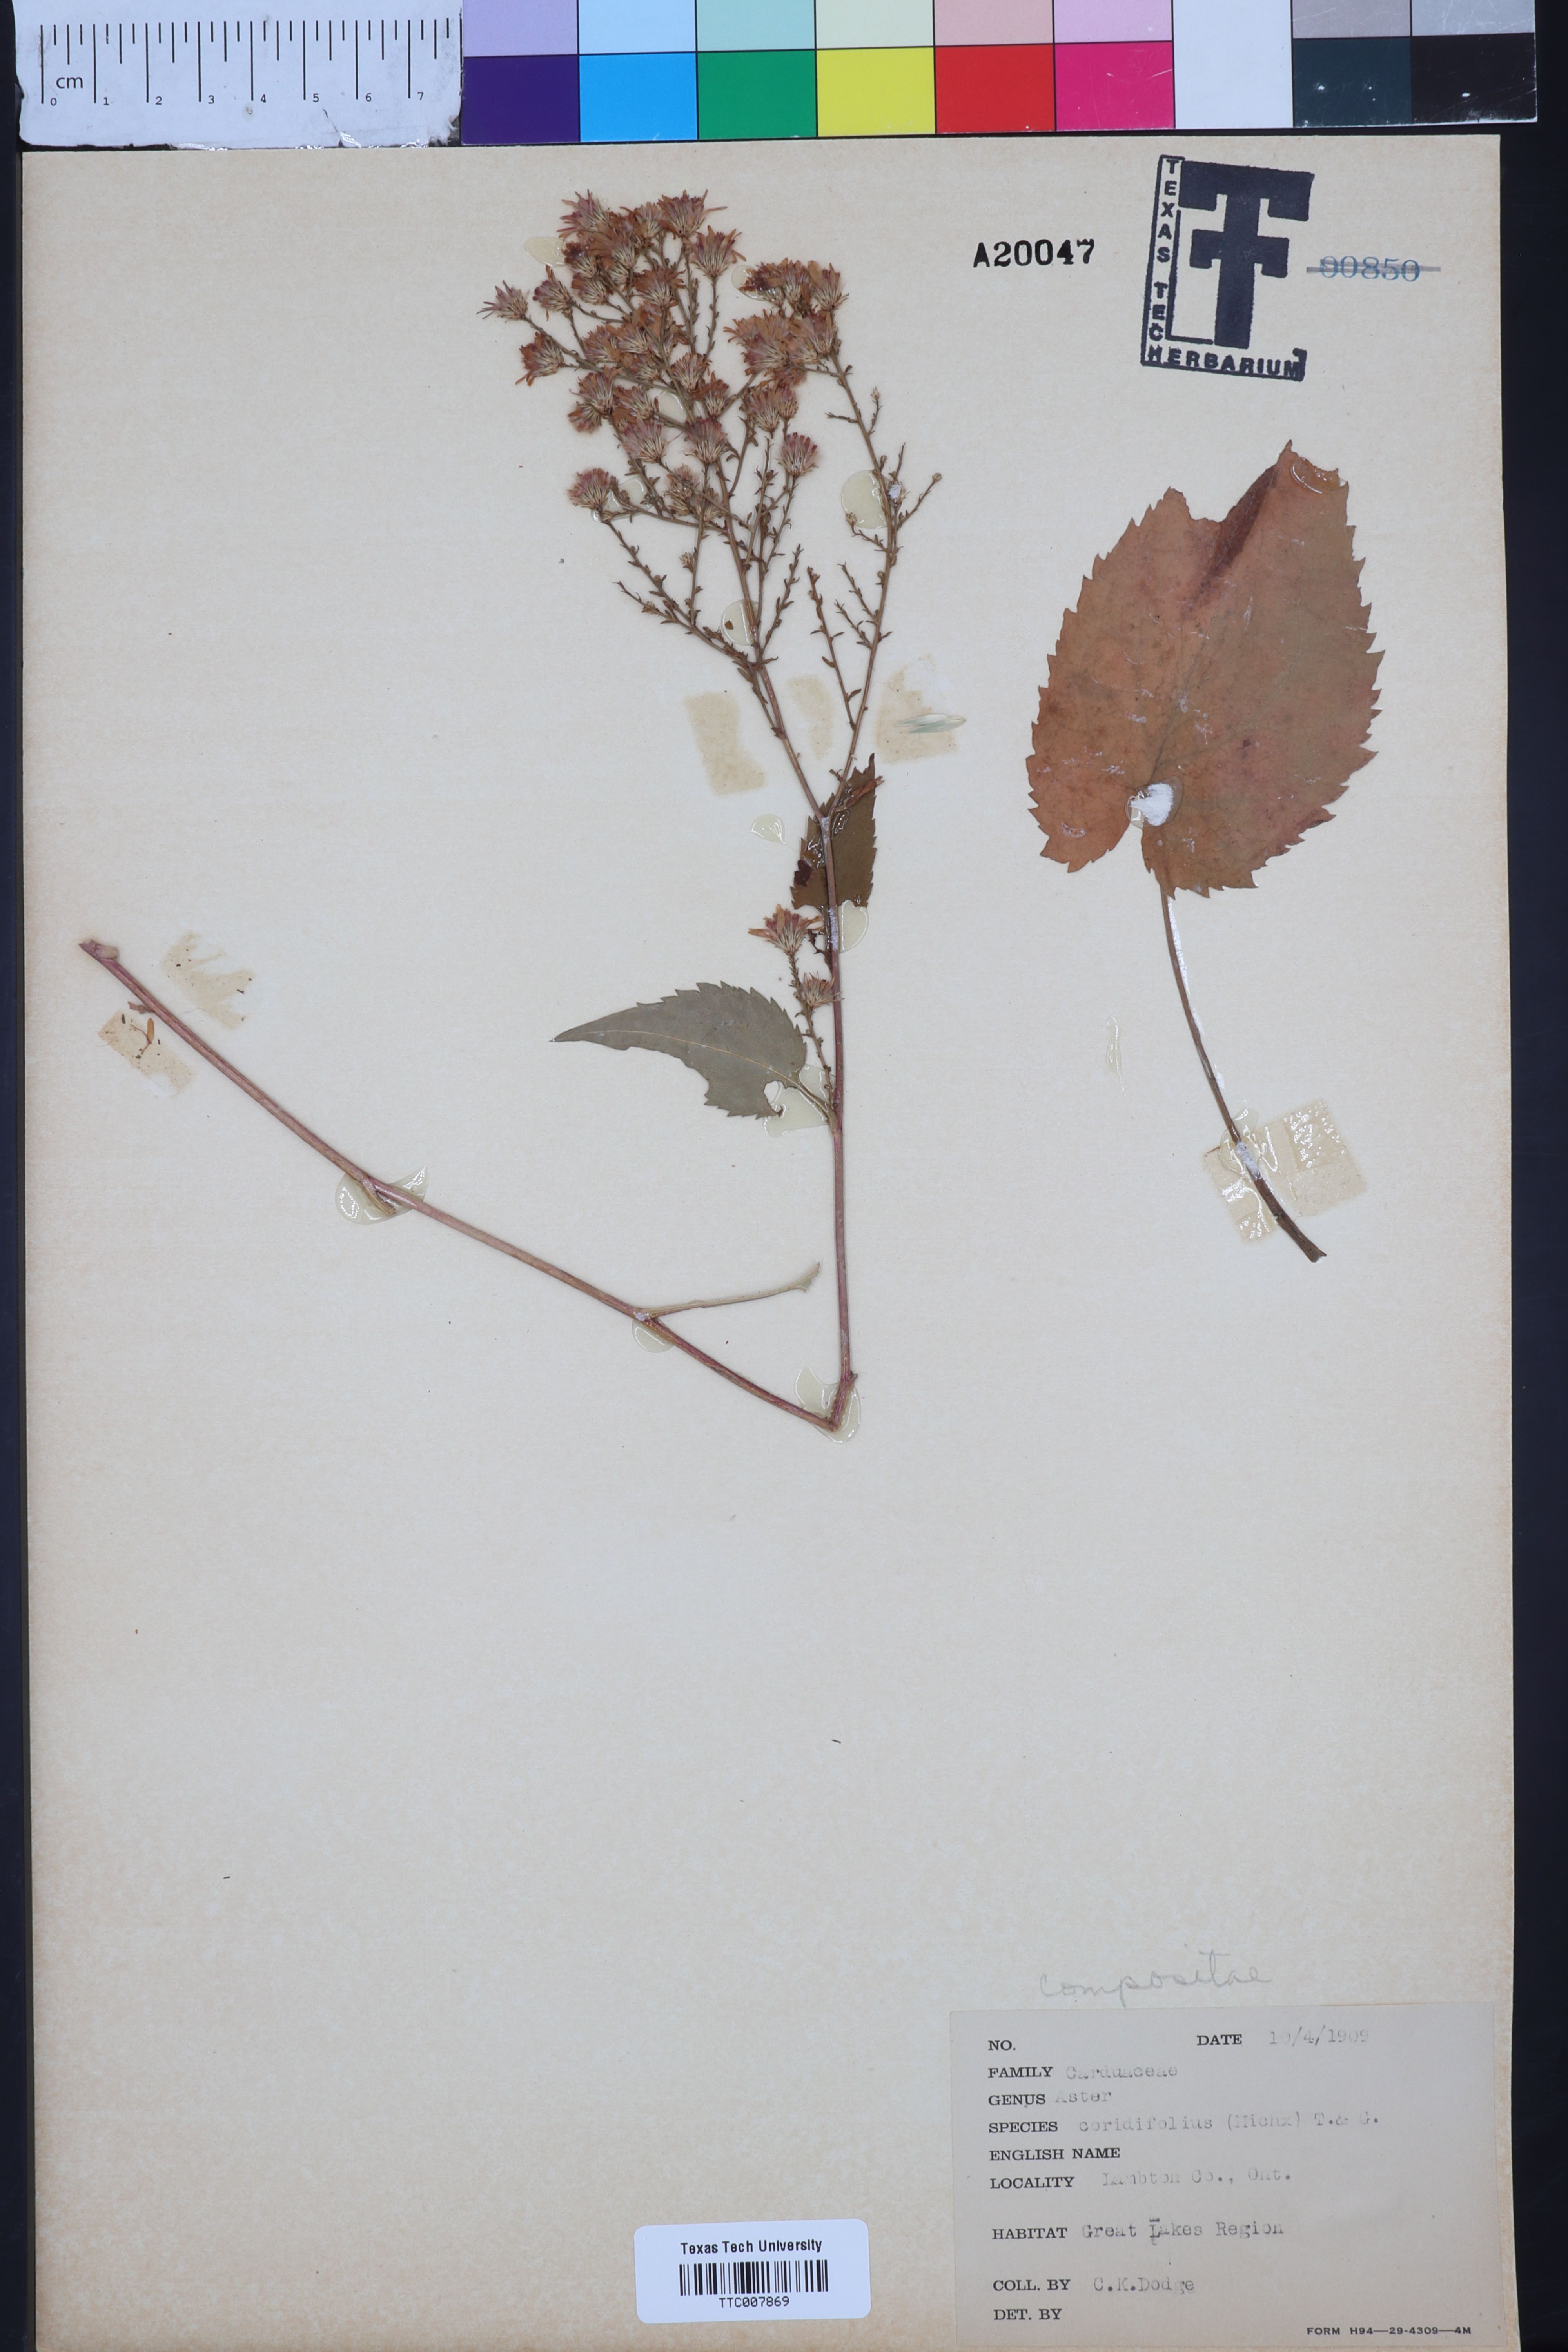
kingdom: Plantae
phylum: Tracheophyta
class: Magnoliopsida
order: Asterales
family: Asteraceae
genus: Symphyotrichum
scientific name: Symphyotrichum dumosum
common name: Bushy aster
